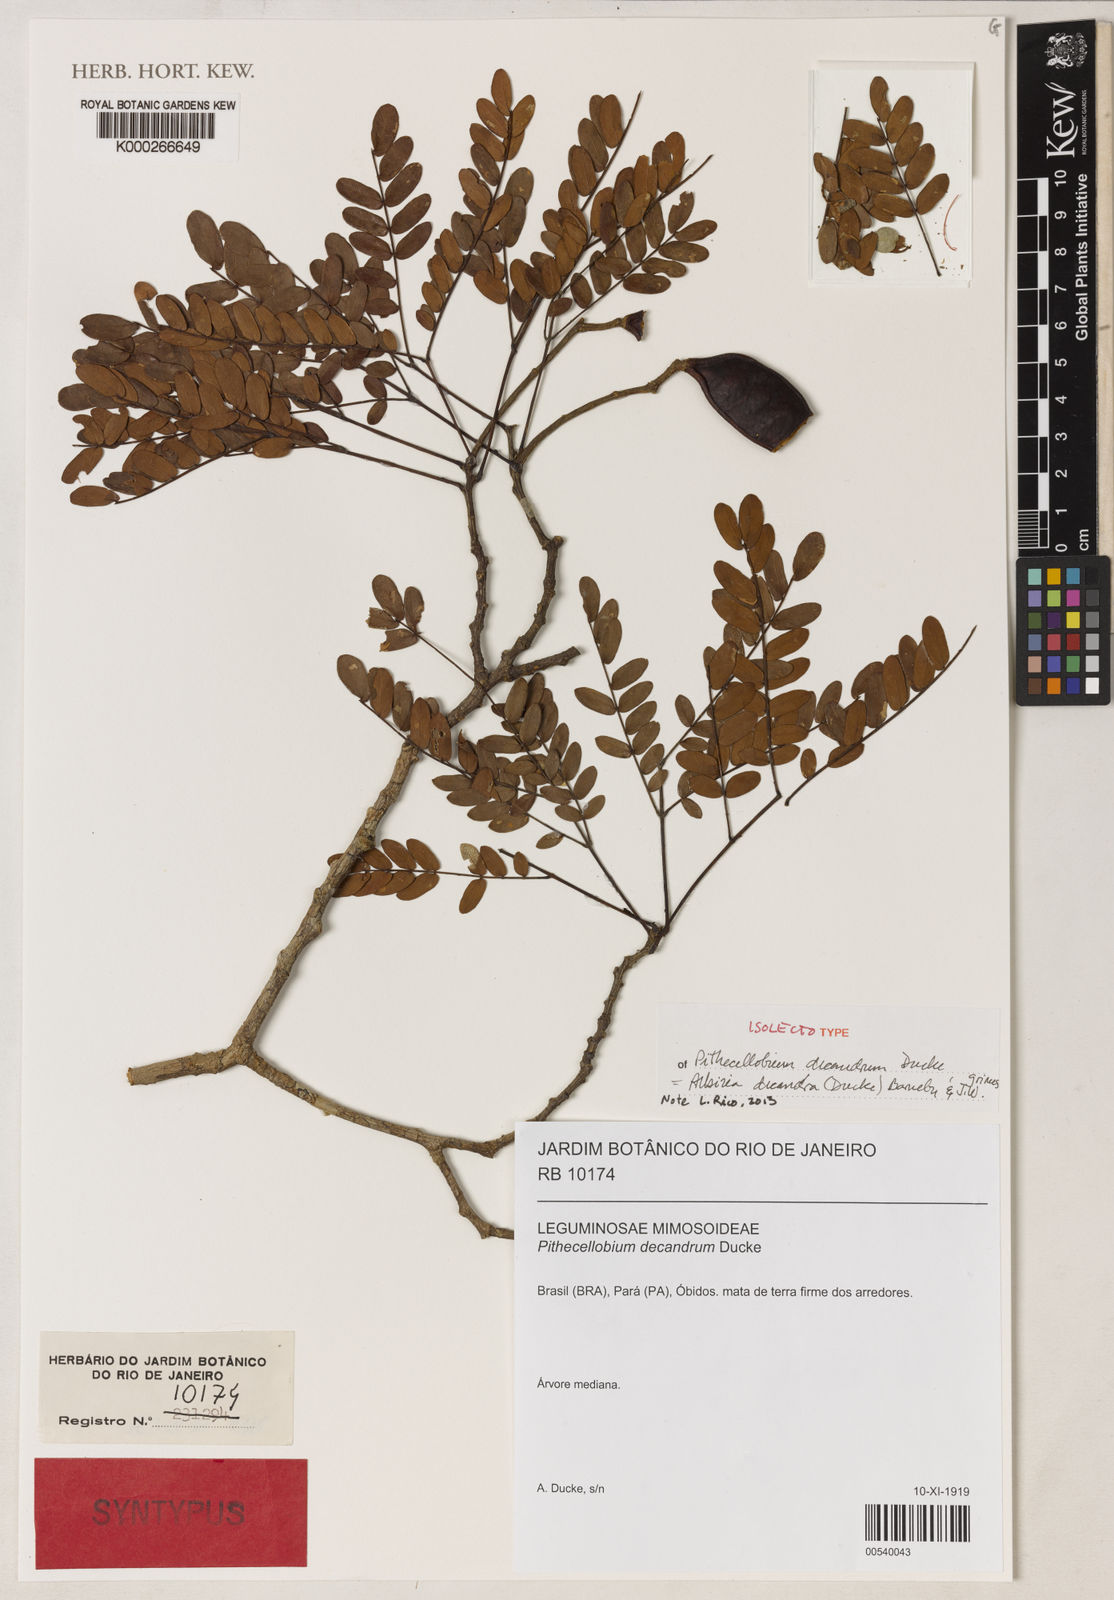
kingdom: Plantae
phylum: Tracheophyta
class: Magnoliopsida
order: Fabales
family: Fabaceae
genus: Albizia
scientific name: Albizia decandra
